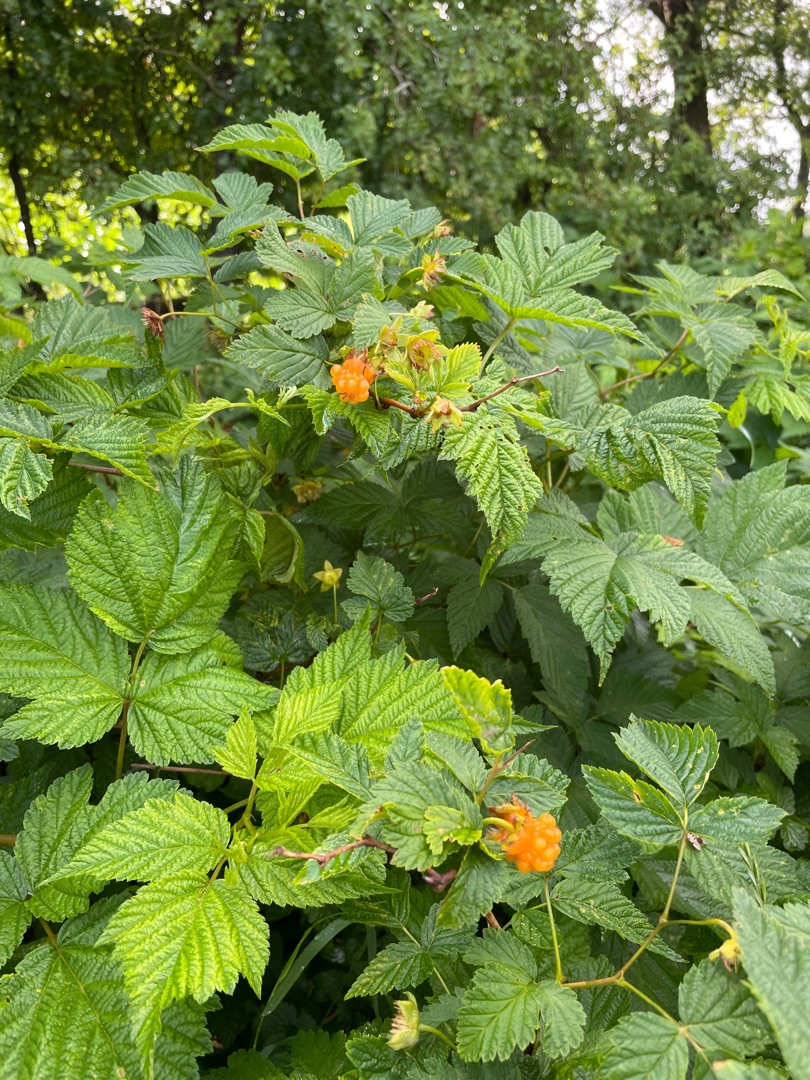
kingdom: Plantae
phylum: Tracheophyta
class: Magnoliopsida
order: Rosales
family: Rosaceae
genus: Rubus
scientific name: Rubus spectabilis
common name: Laksebær
